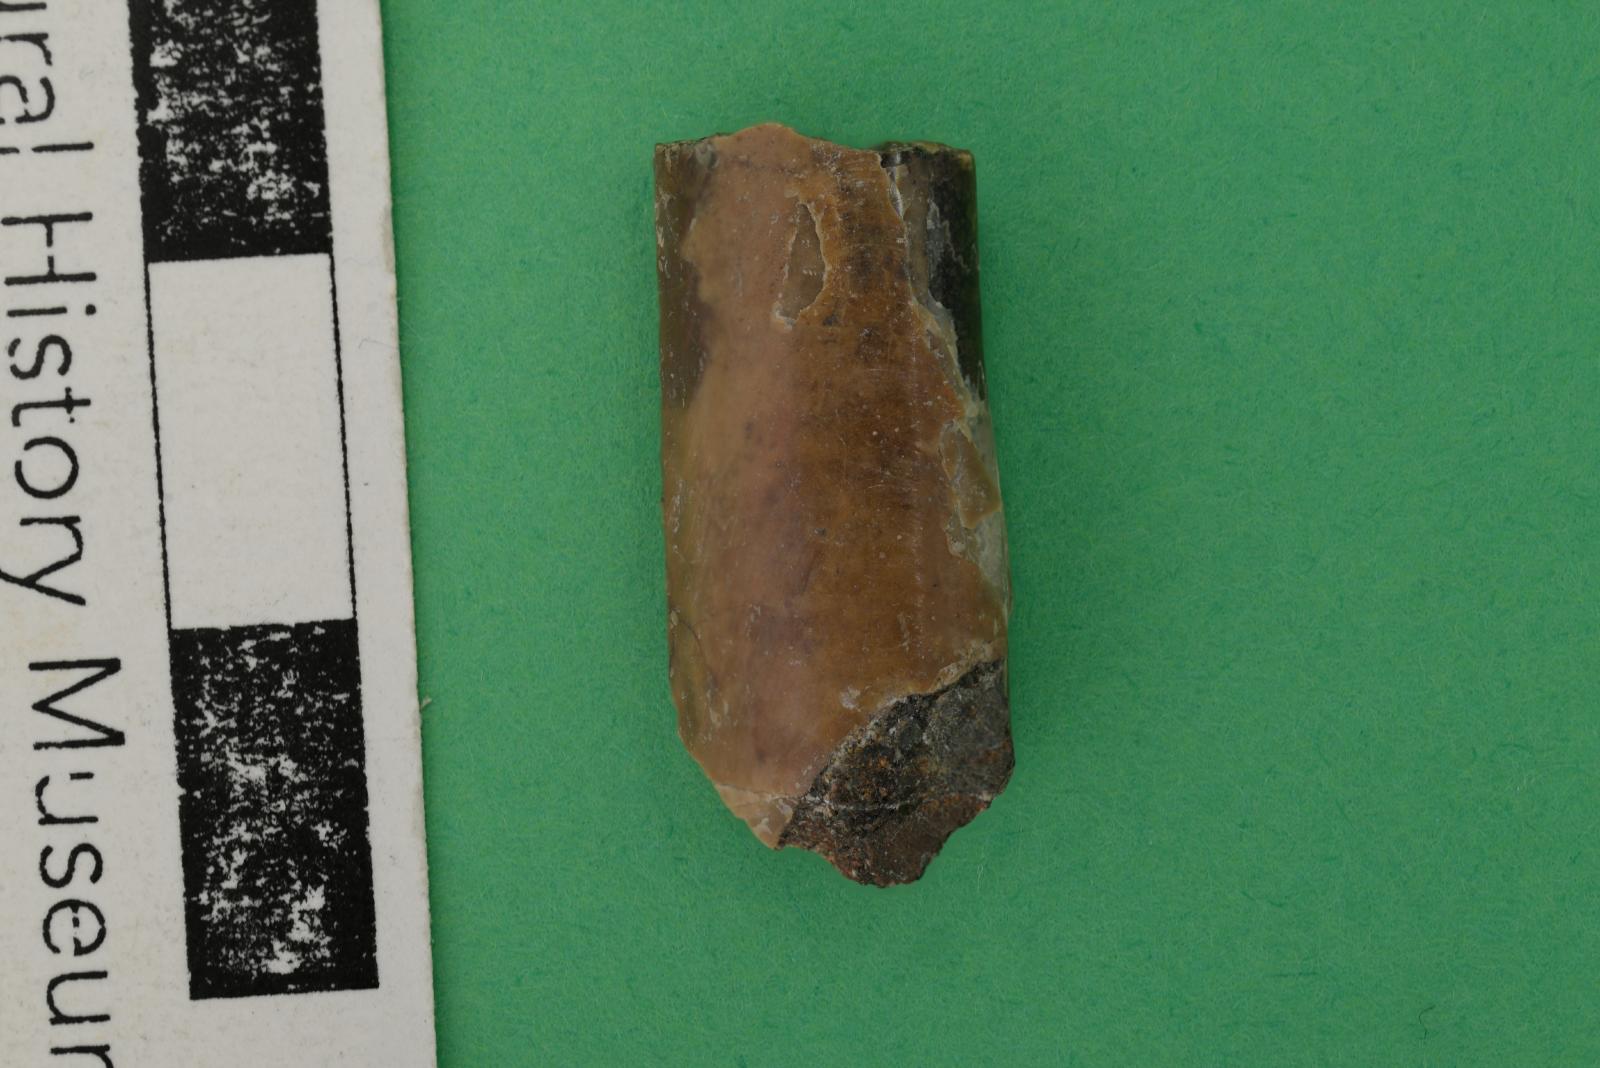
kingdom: Animalia
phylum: Mollusca
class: Cephalopoda
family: Baculitidae
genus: Baculites
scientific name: Baculites kirki
